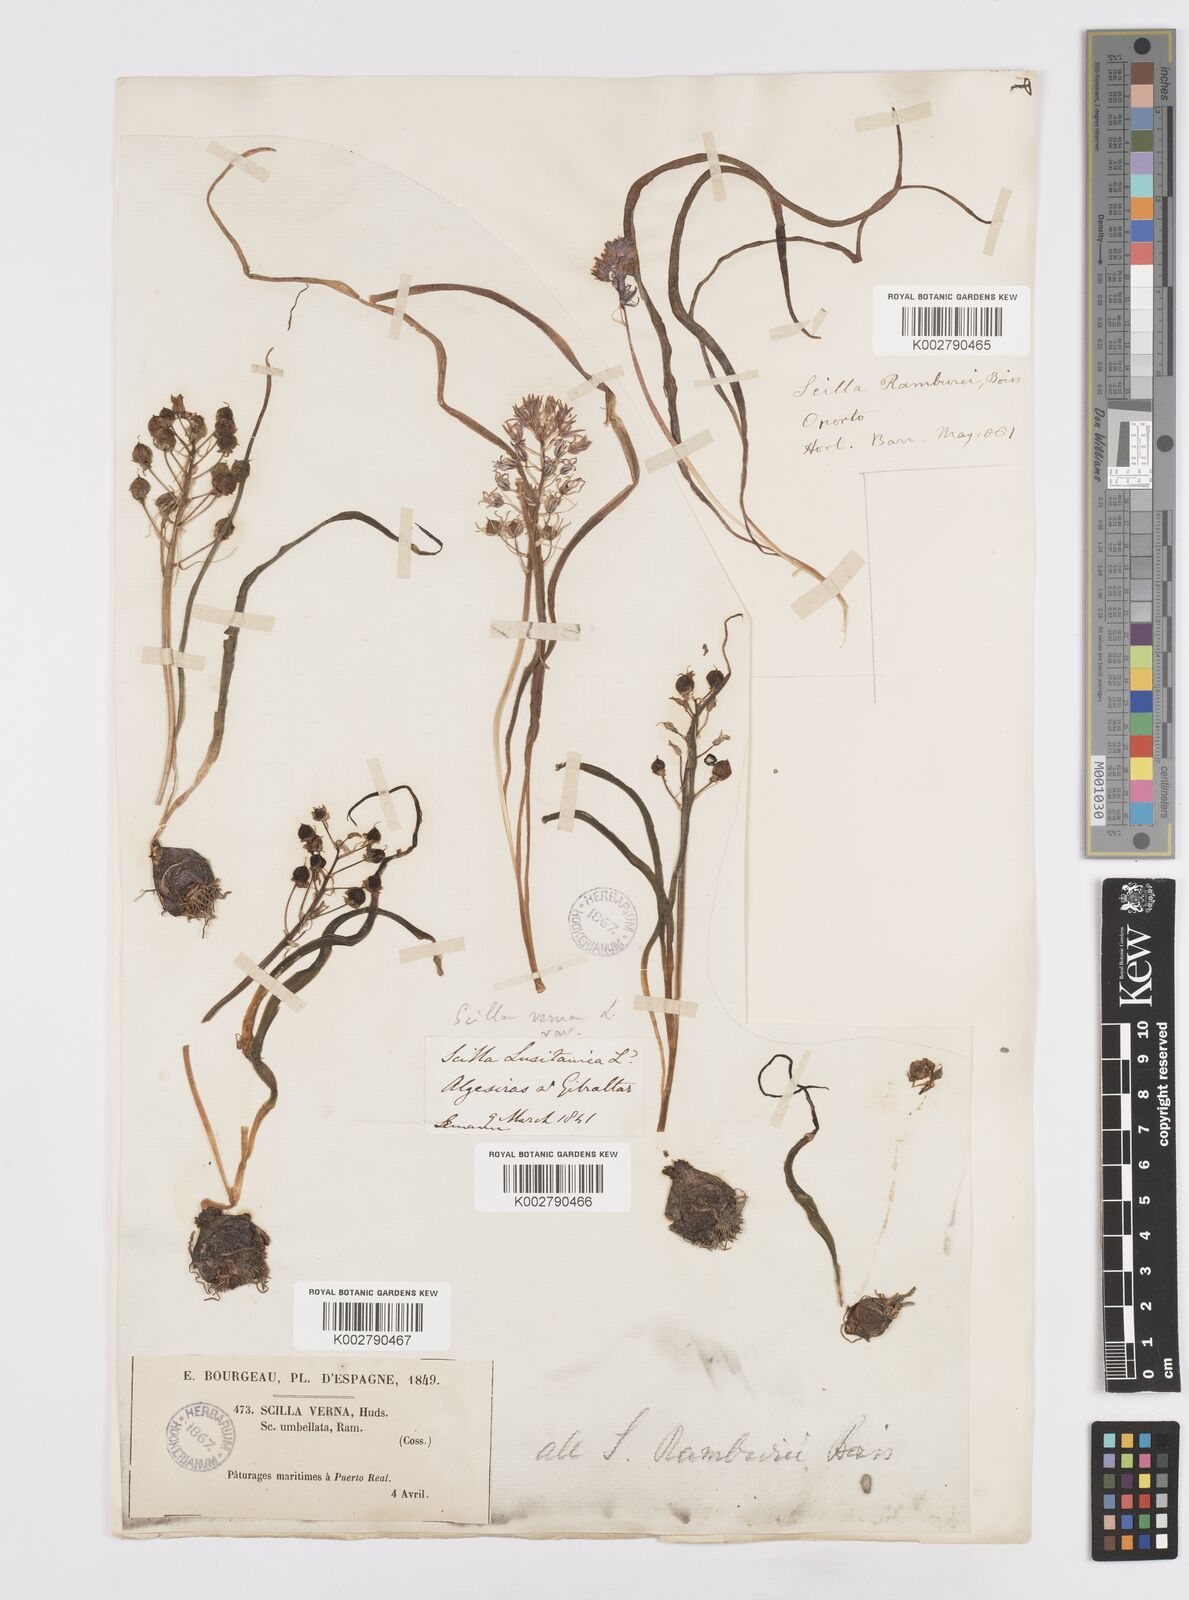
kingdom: Plantae
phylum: Tracheophyta
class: Liliopsida
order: Asparagales
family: Asparagaceae
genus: Scilla
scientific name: Scilla verna
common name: Spring squill
